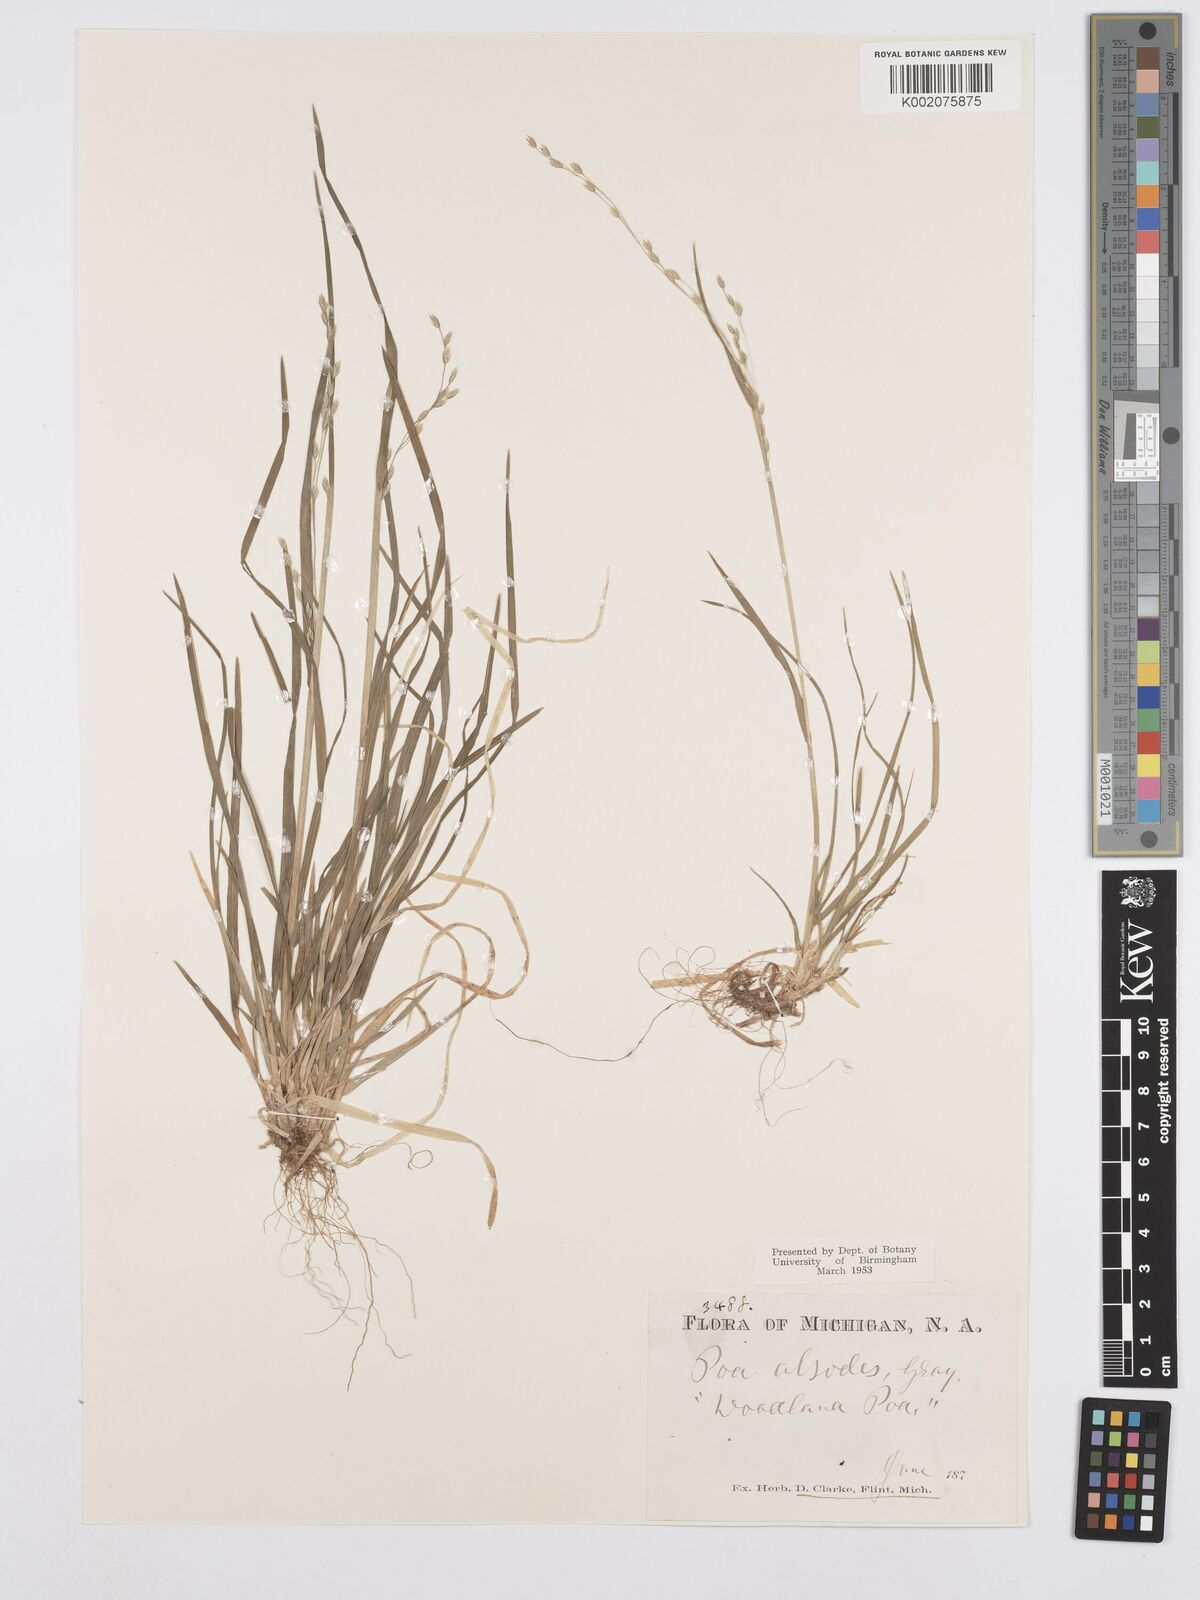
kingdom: Plantae
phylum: Tracheophyta
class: Liliopsida
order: Poales
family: Poaceae
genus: Poa
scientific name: Poa alsodes
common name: Grove bluegrass
